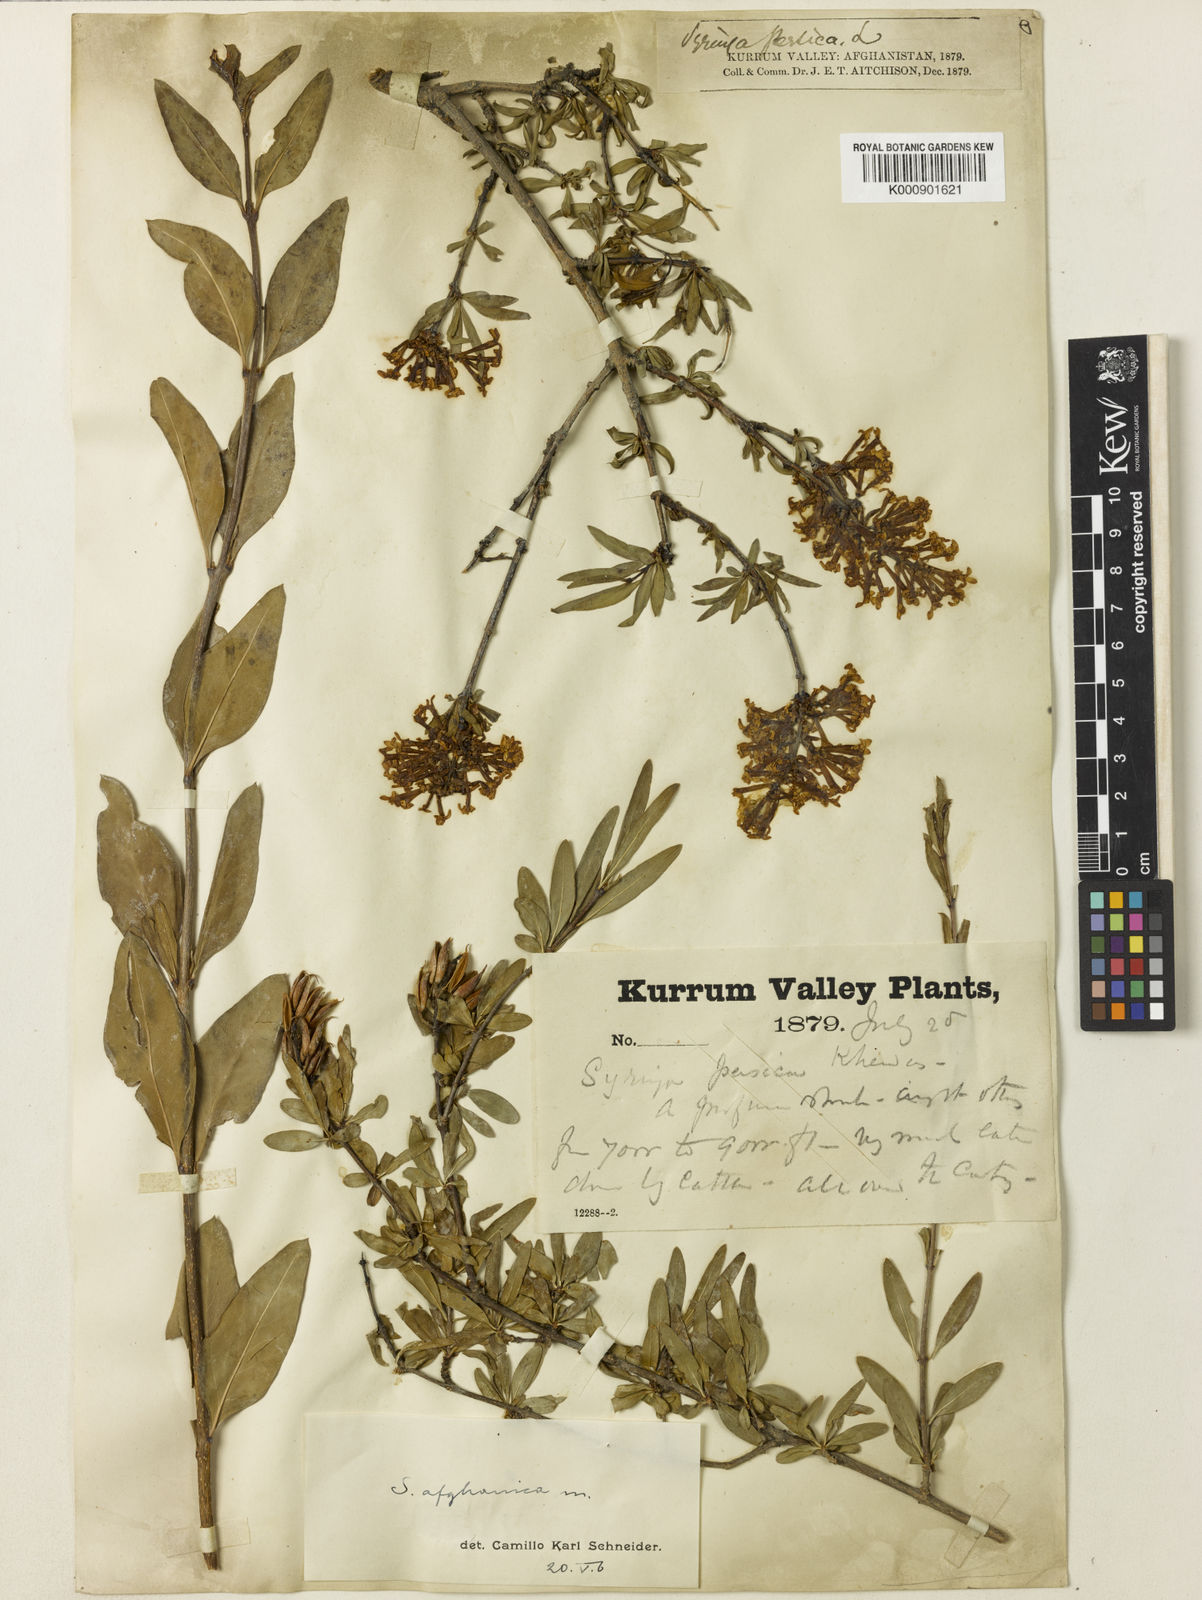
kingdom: Plantae
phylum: Tracheophyta
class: Magnoliopsida
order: Lamiales
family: Oleaceae
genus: Syringa
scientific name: Syringa persica
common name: Persian lilac
